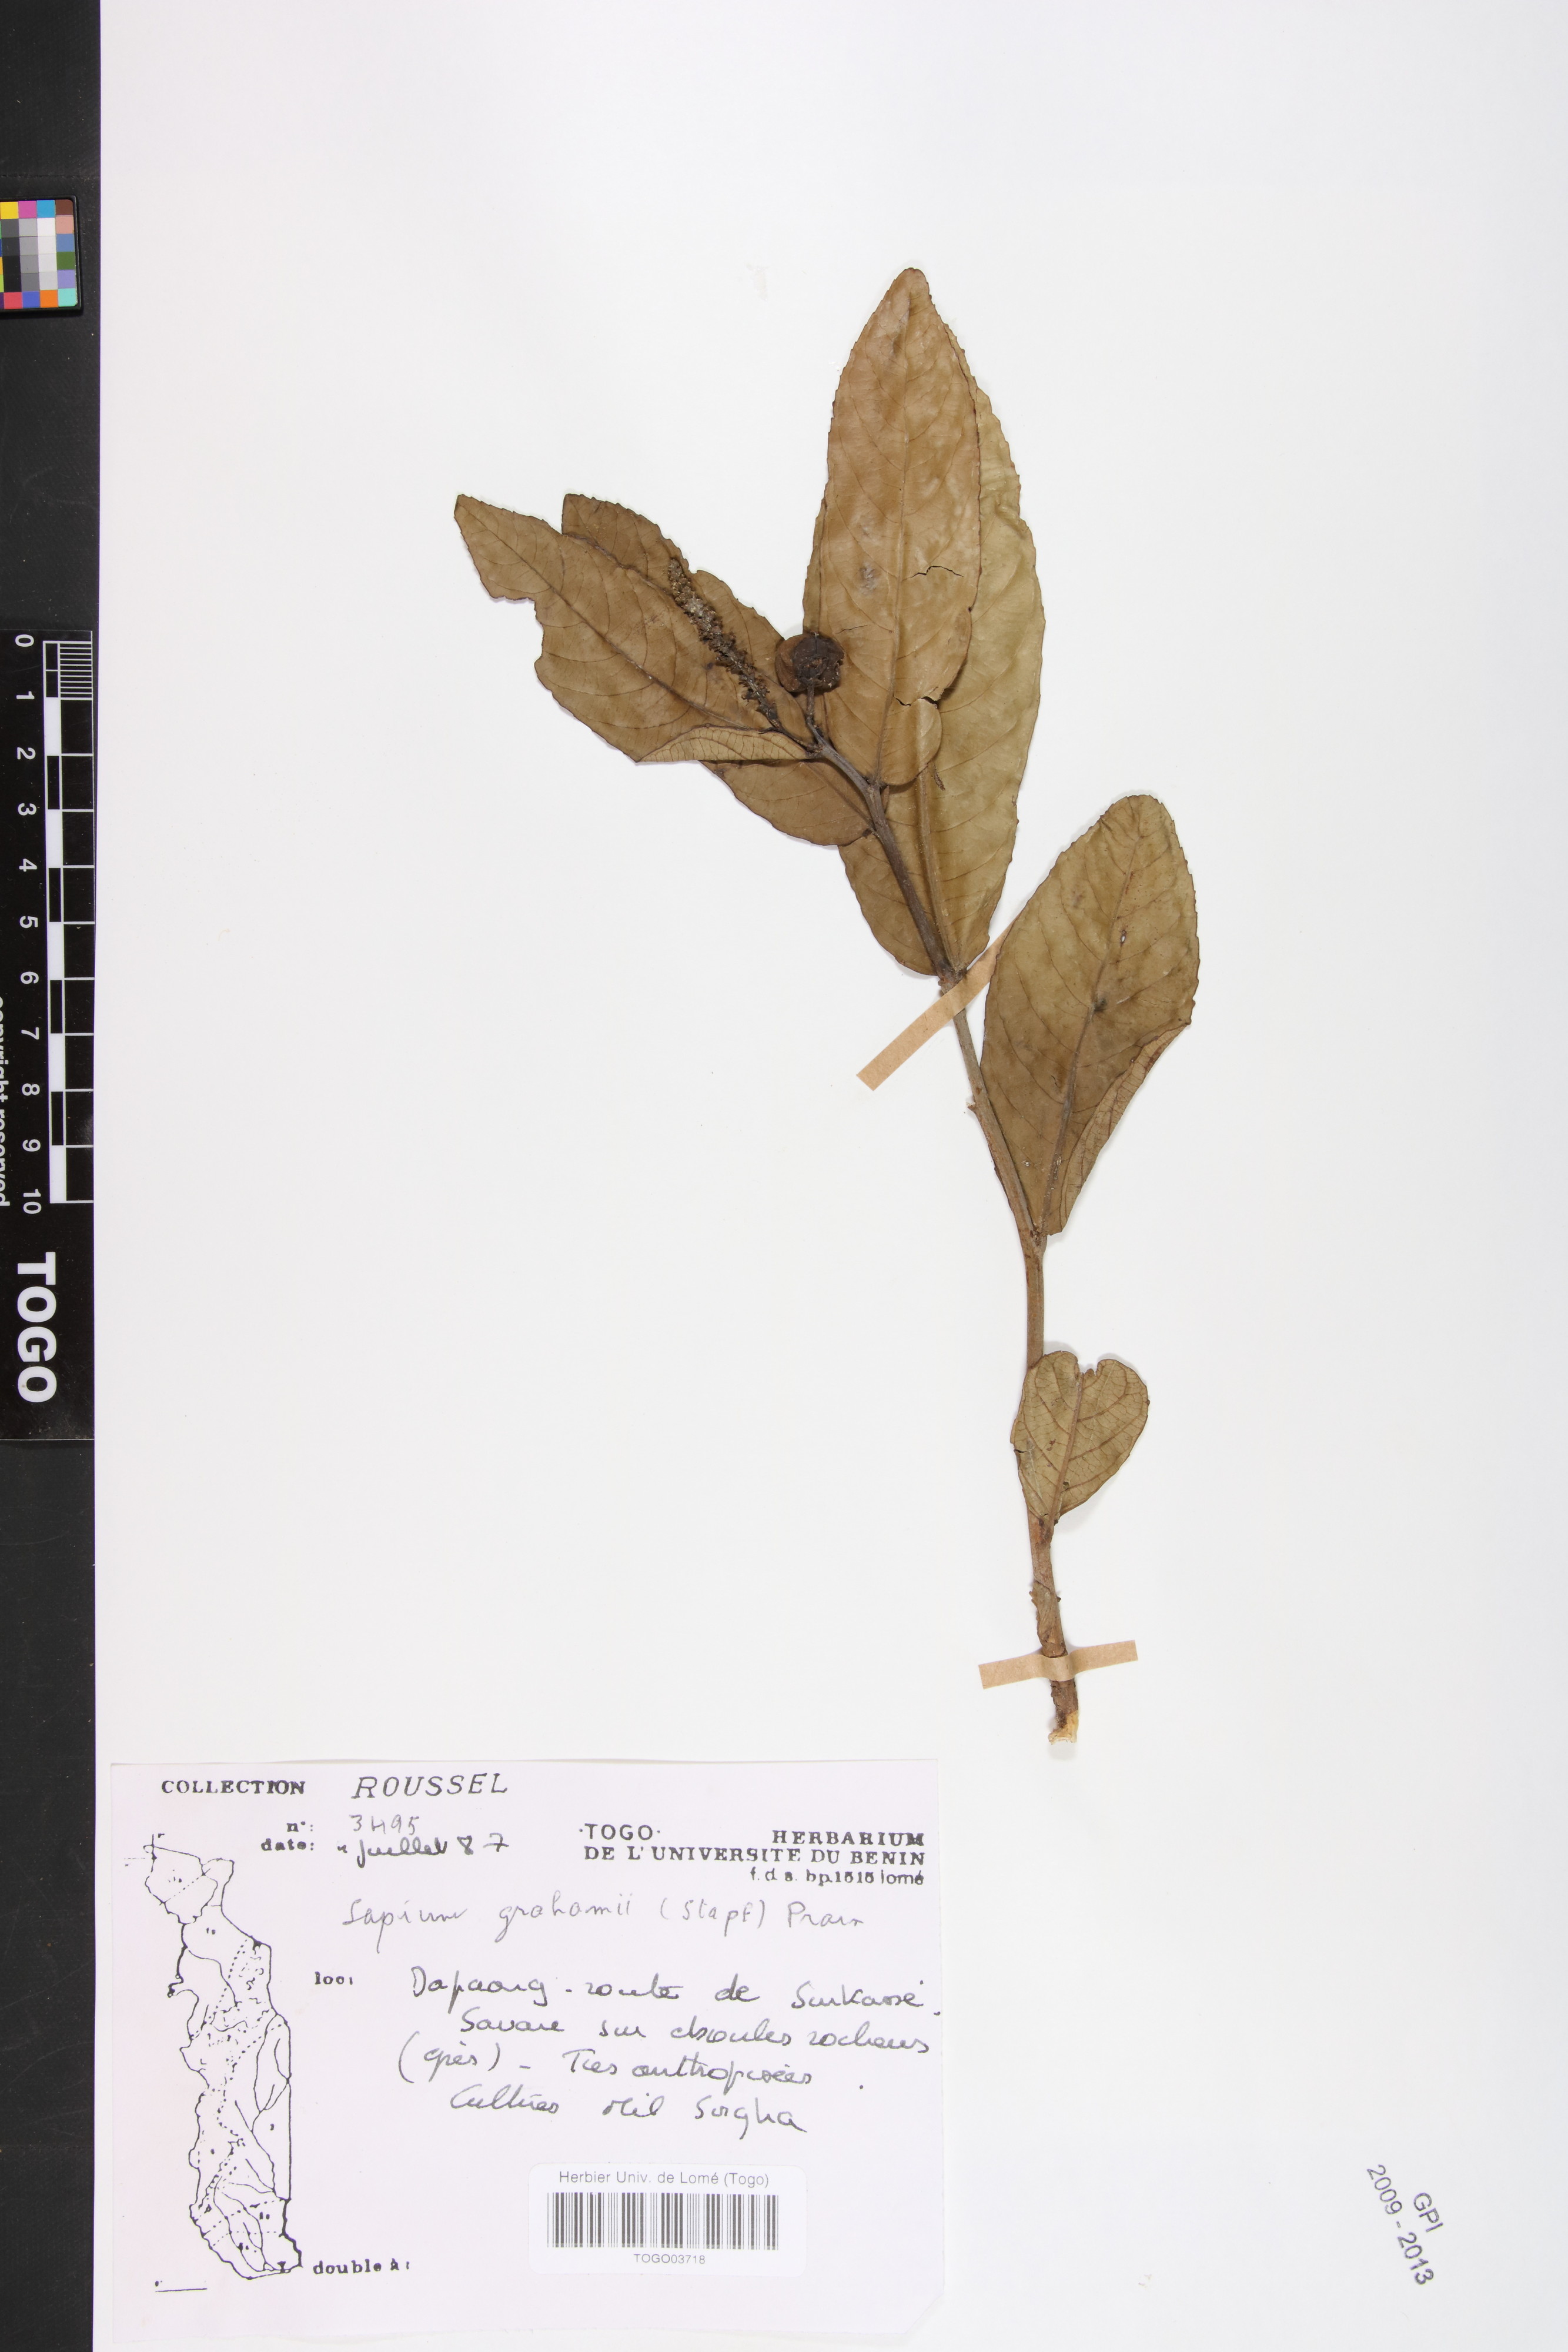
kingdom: Plantae
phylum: Tracheophyta
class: Magnoliopsida
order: Malpighiales
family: Euphorbiaceae
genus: Excoecaria
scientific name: Excoecaria grahamii
